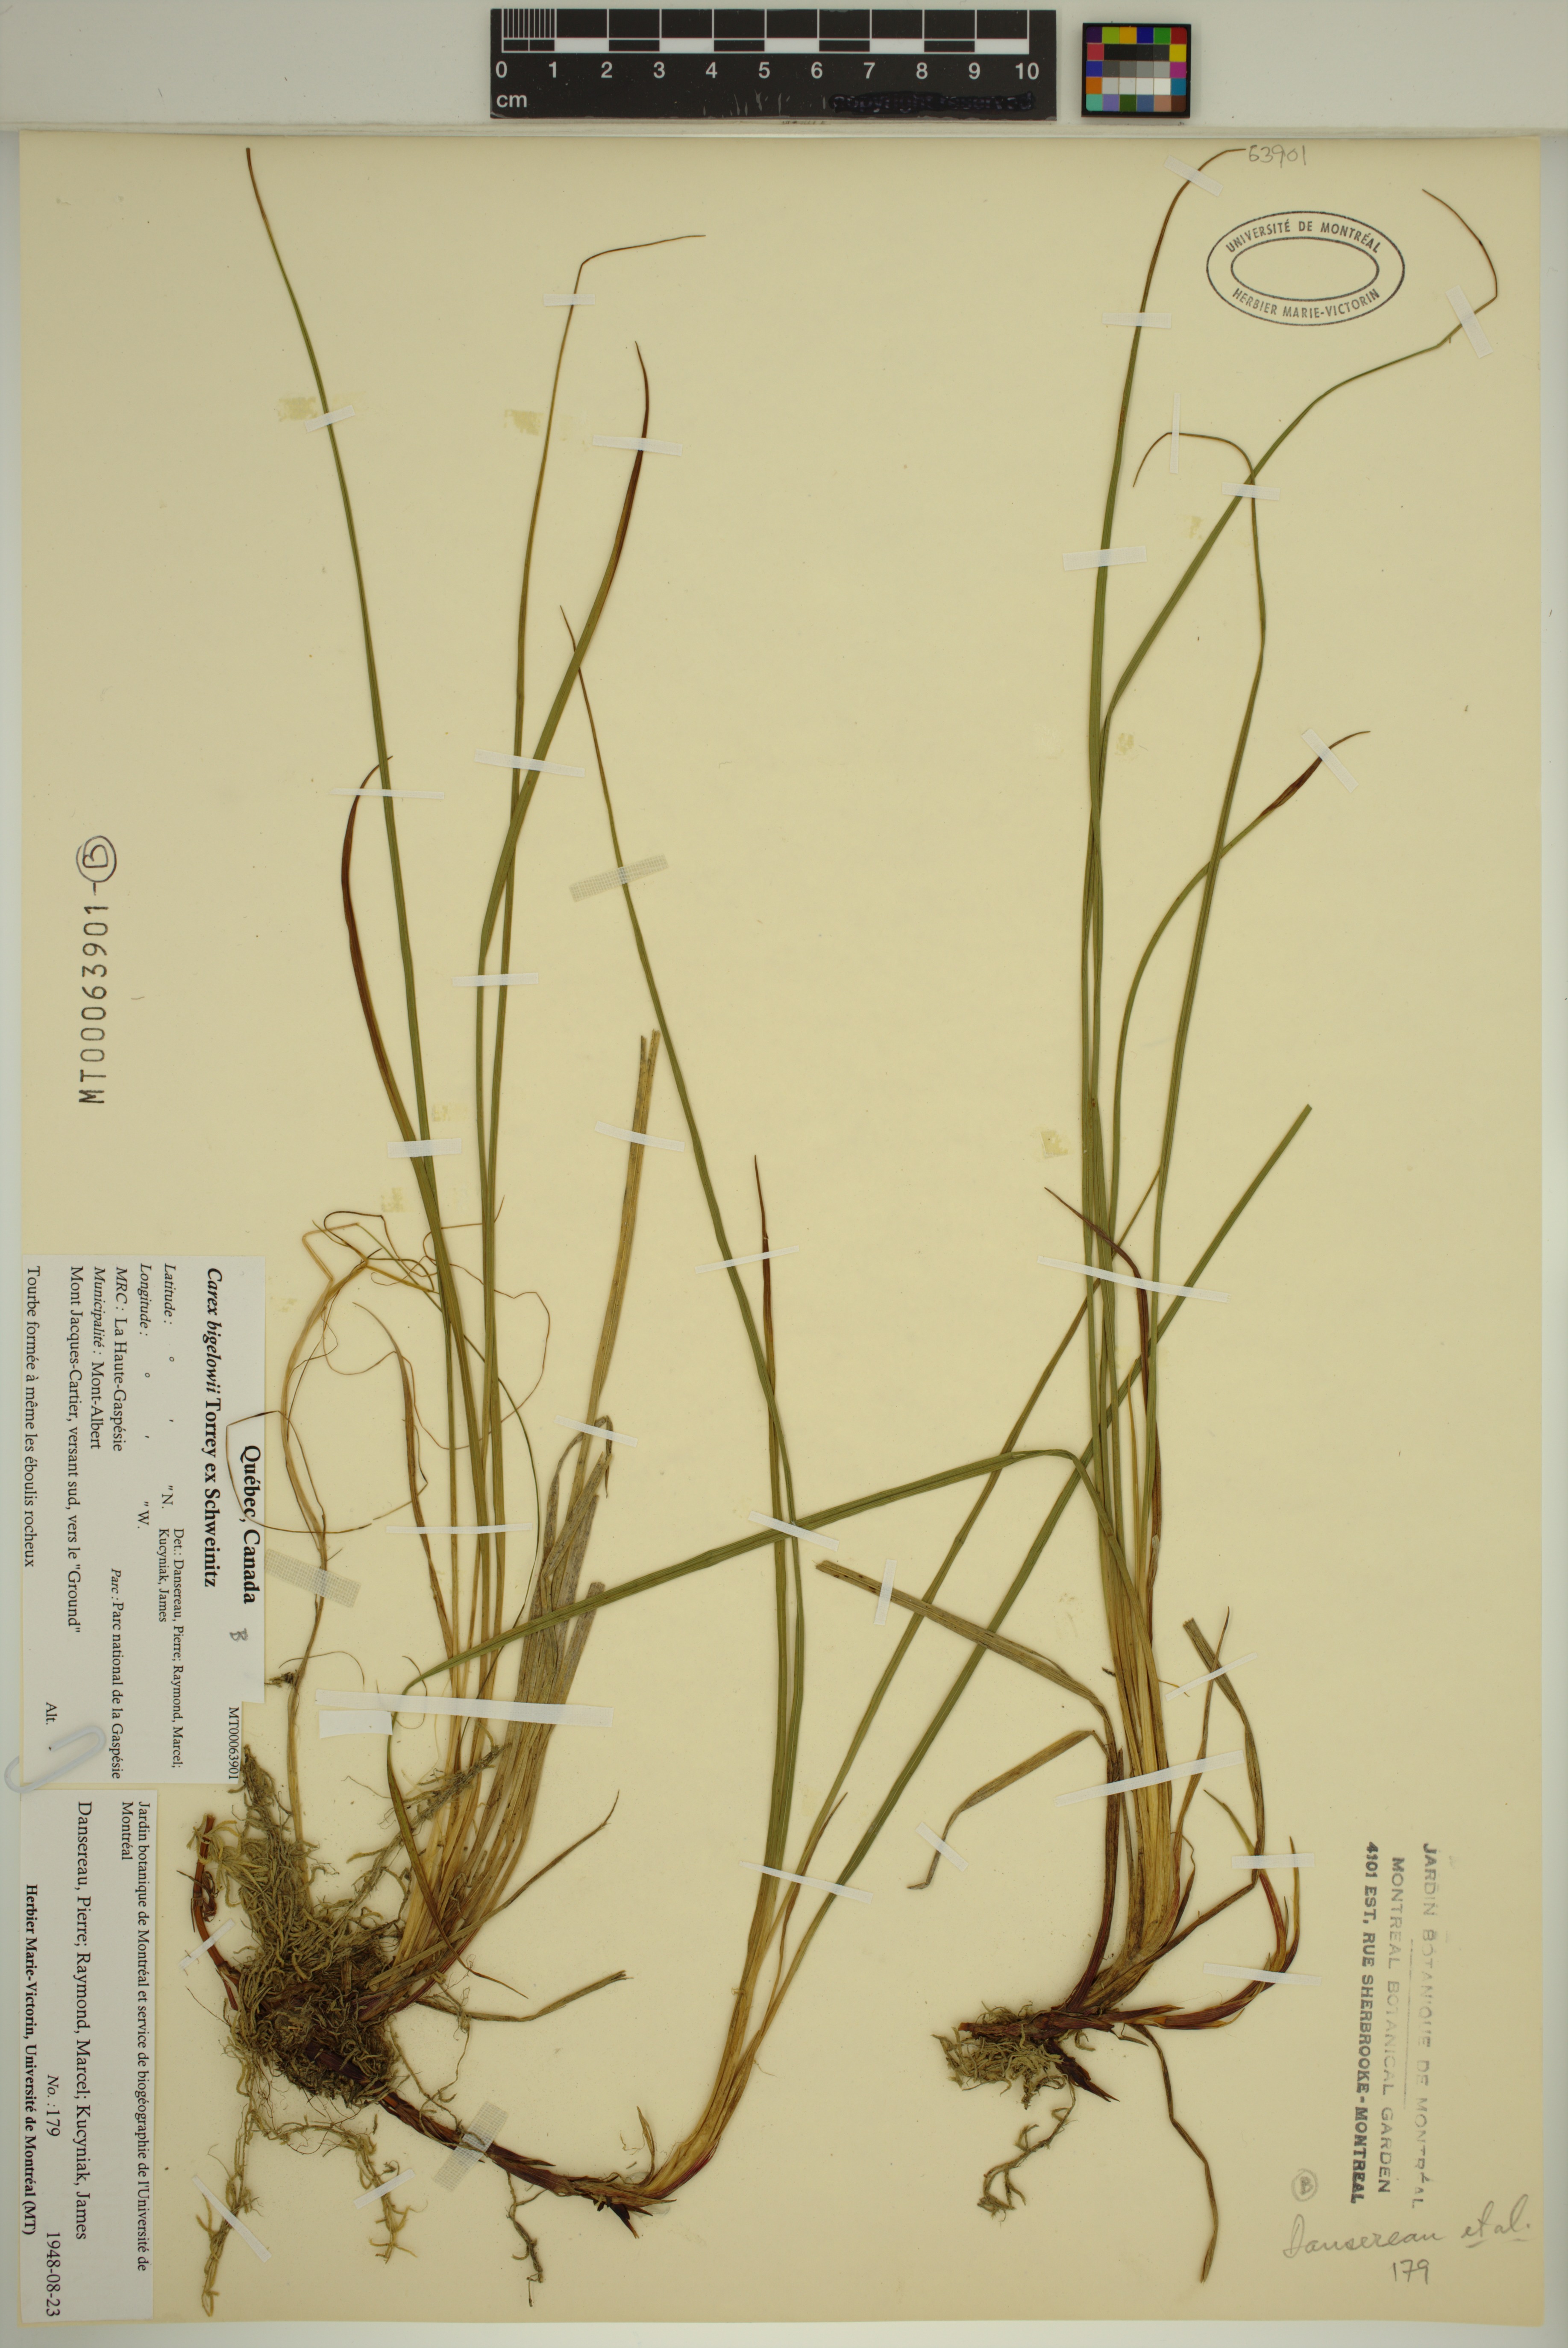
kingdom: Plantae
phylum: Tracheophyta
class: Liliopsida
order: Poales
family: Cyperaceae
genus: Carex
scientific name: Carex bigelowii
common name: Stiff sedge
